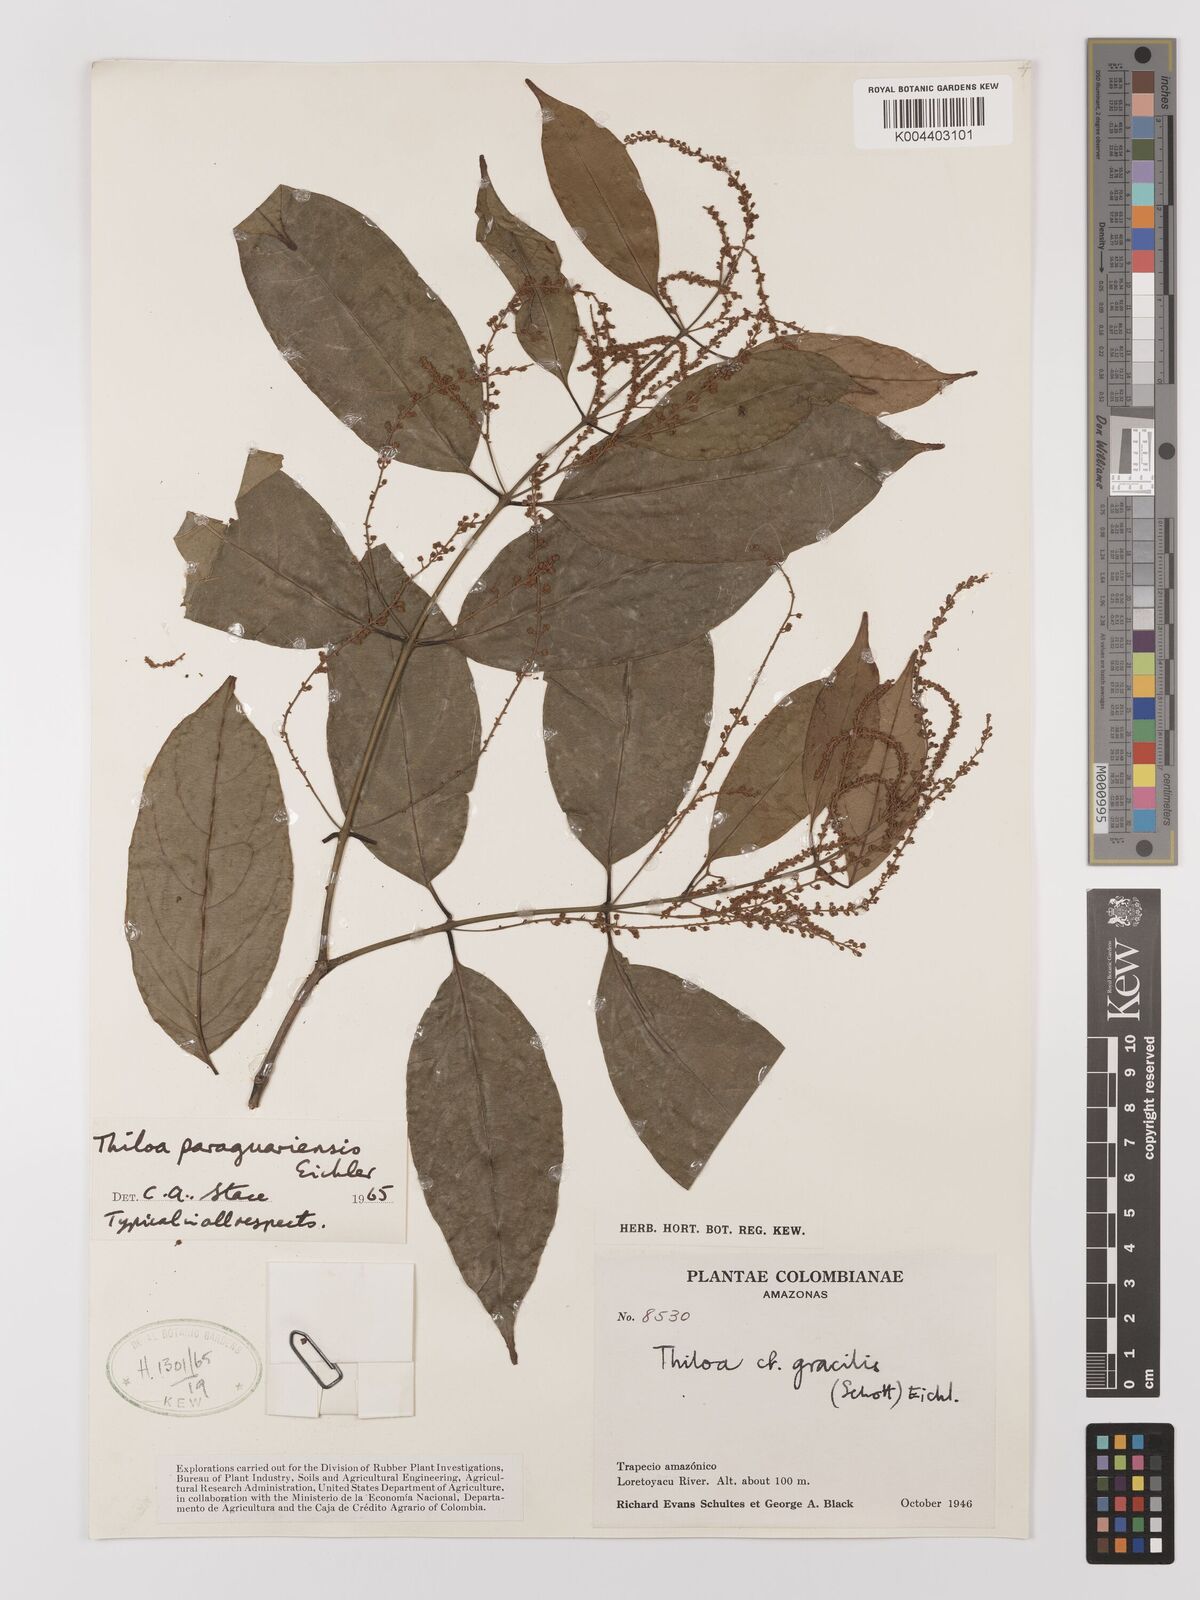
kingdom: Plantae
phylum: Tracheophyta
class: Magnoliopsida
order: Myrtales
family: Combretaceae
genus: Combretum
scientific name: Combretum paraguariense
